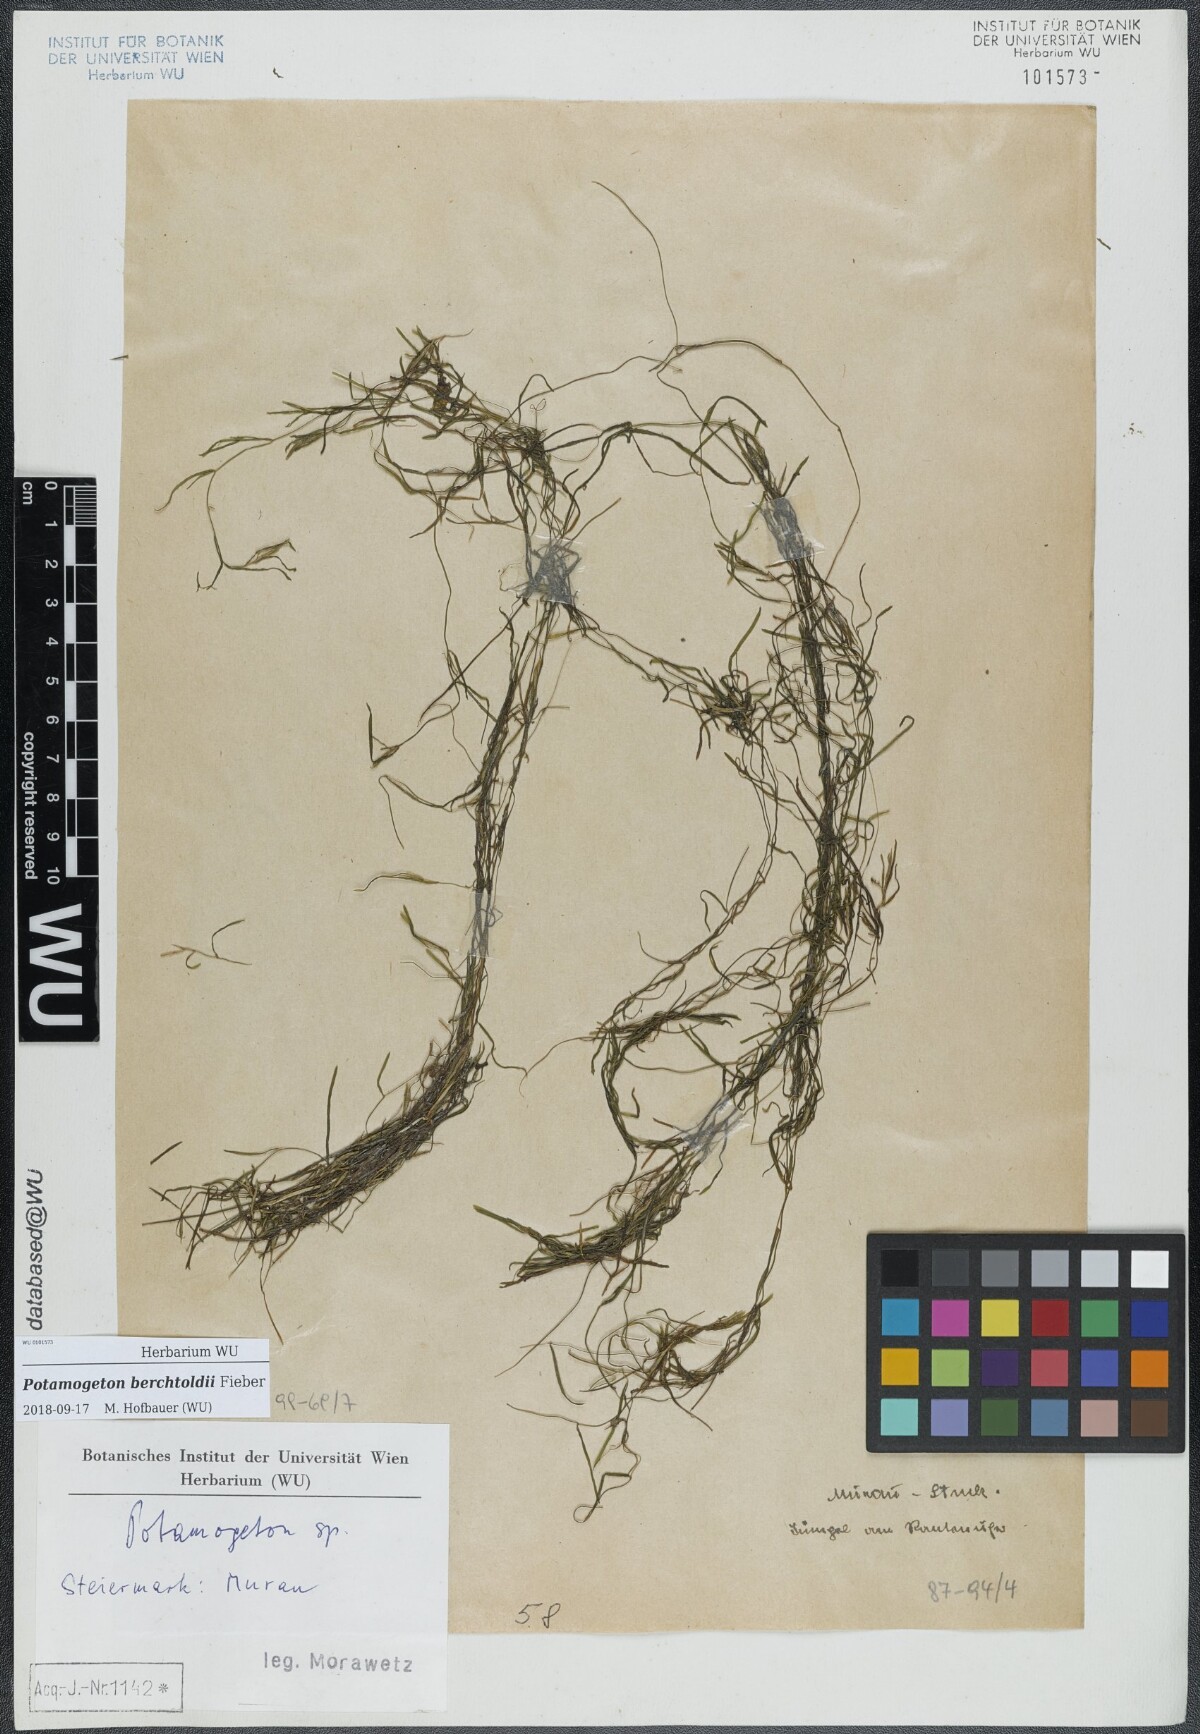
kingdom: Plantae
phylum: Tracheophyta
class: Liliopsida
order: Alismatales
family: Potamogetonaceae
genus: Potamogeton
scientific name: Potamogeton berchtoldii
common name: Small pondweed
